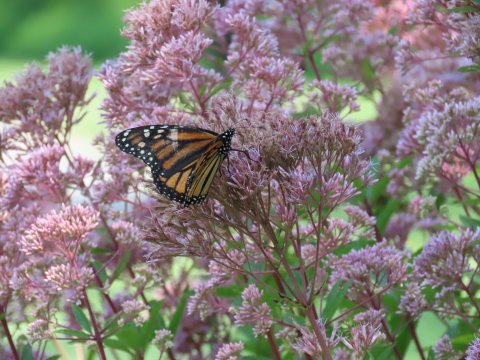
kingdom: Animalia
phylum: Arthropoda
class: Insecta
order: Lepidoptera
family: Nymphalidae
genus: Danaus
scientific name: Danaus plexippus
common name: Monarch
